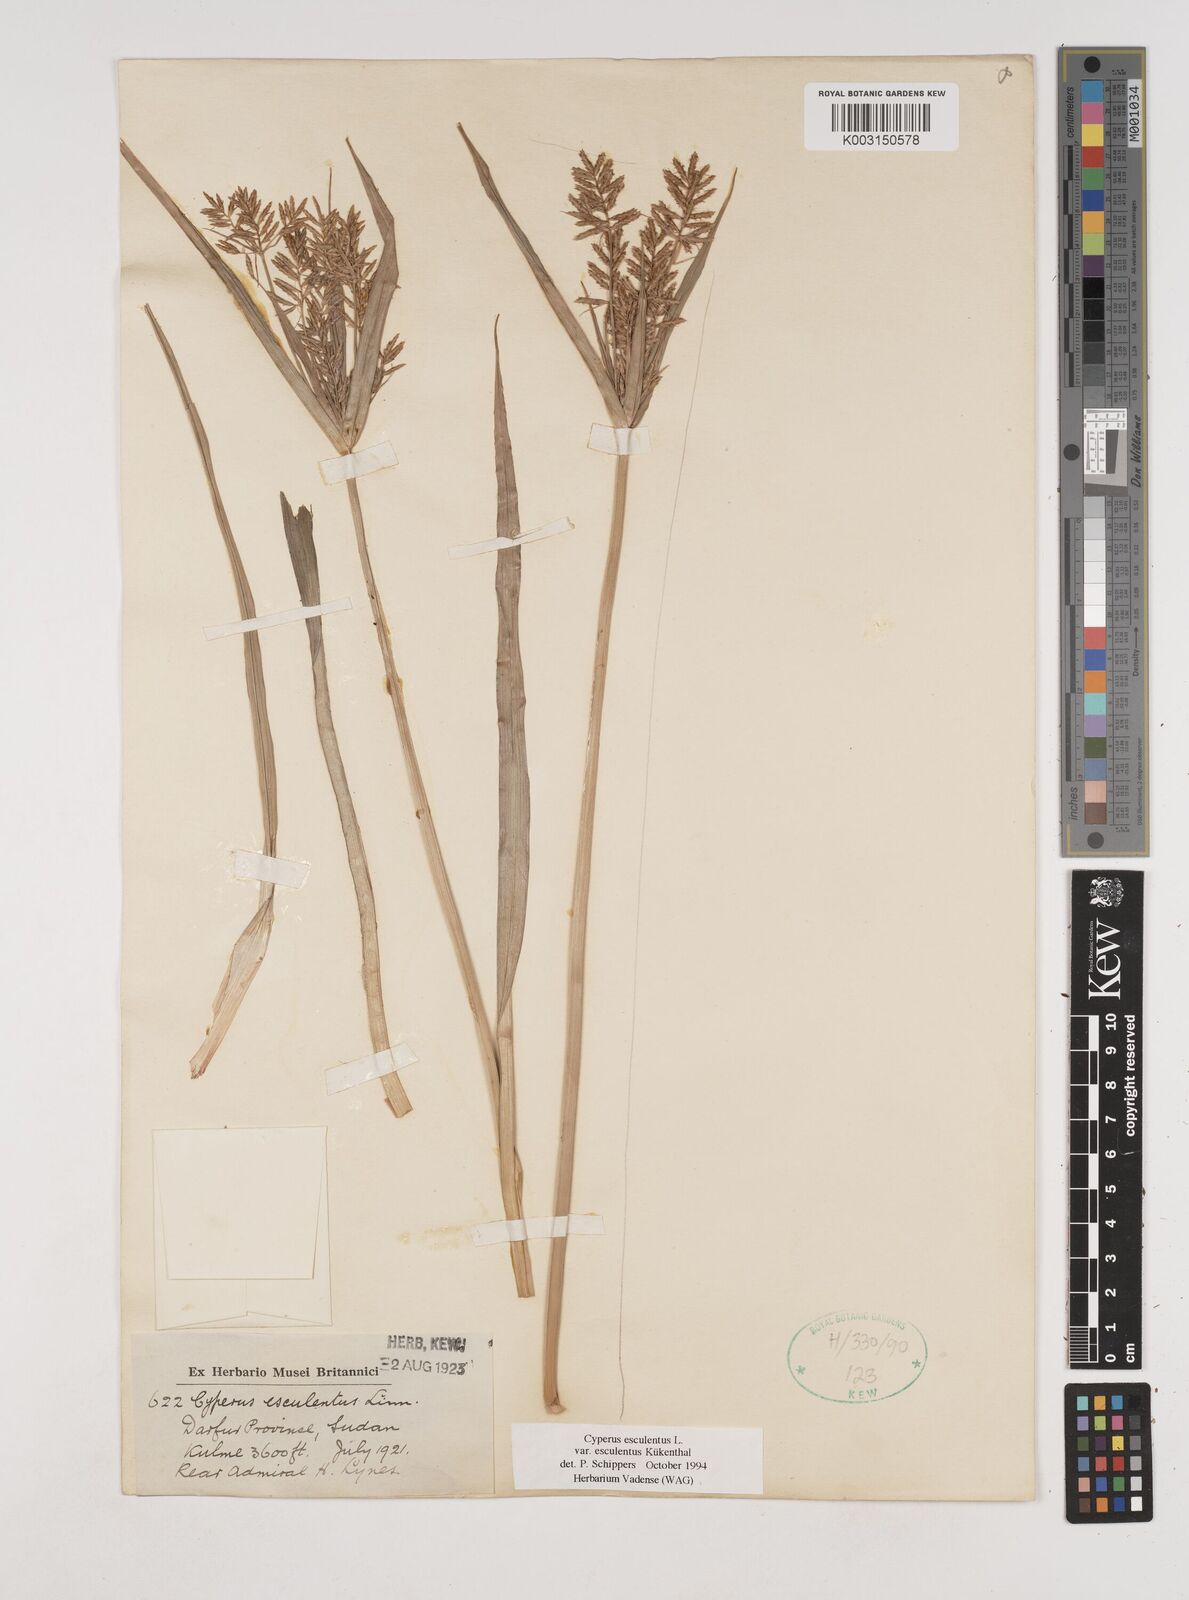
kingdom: Plantae
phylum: Tracheophyta
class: Liliopsida
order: Poales
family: Cyperaceae
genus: Cyperus
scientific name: Cyperus esculentus
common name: Yellow nutsedge
